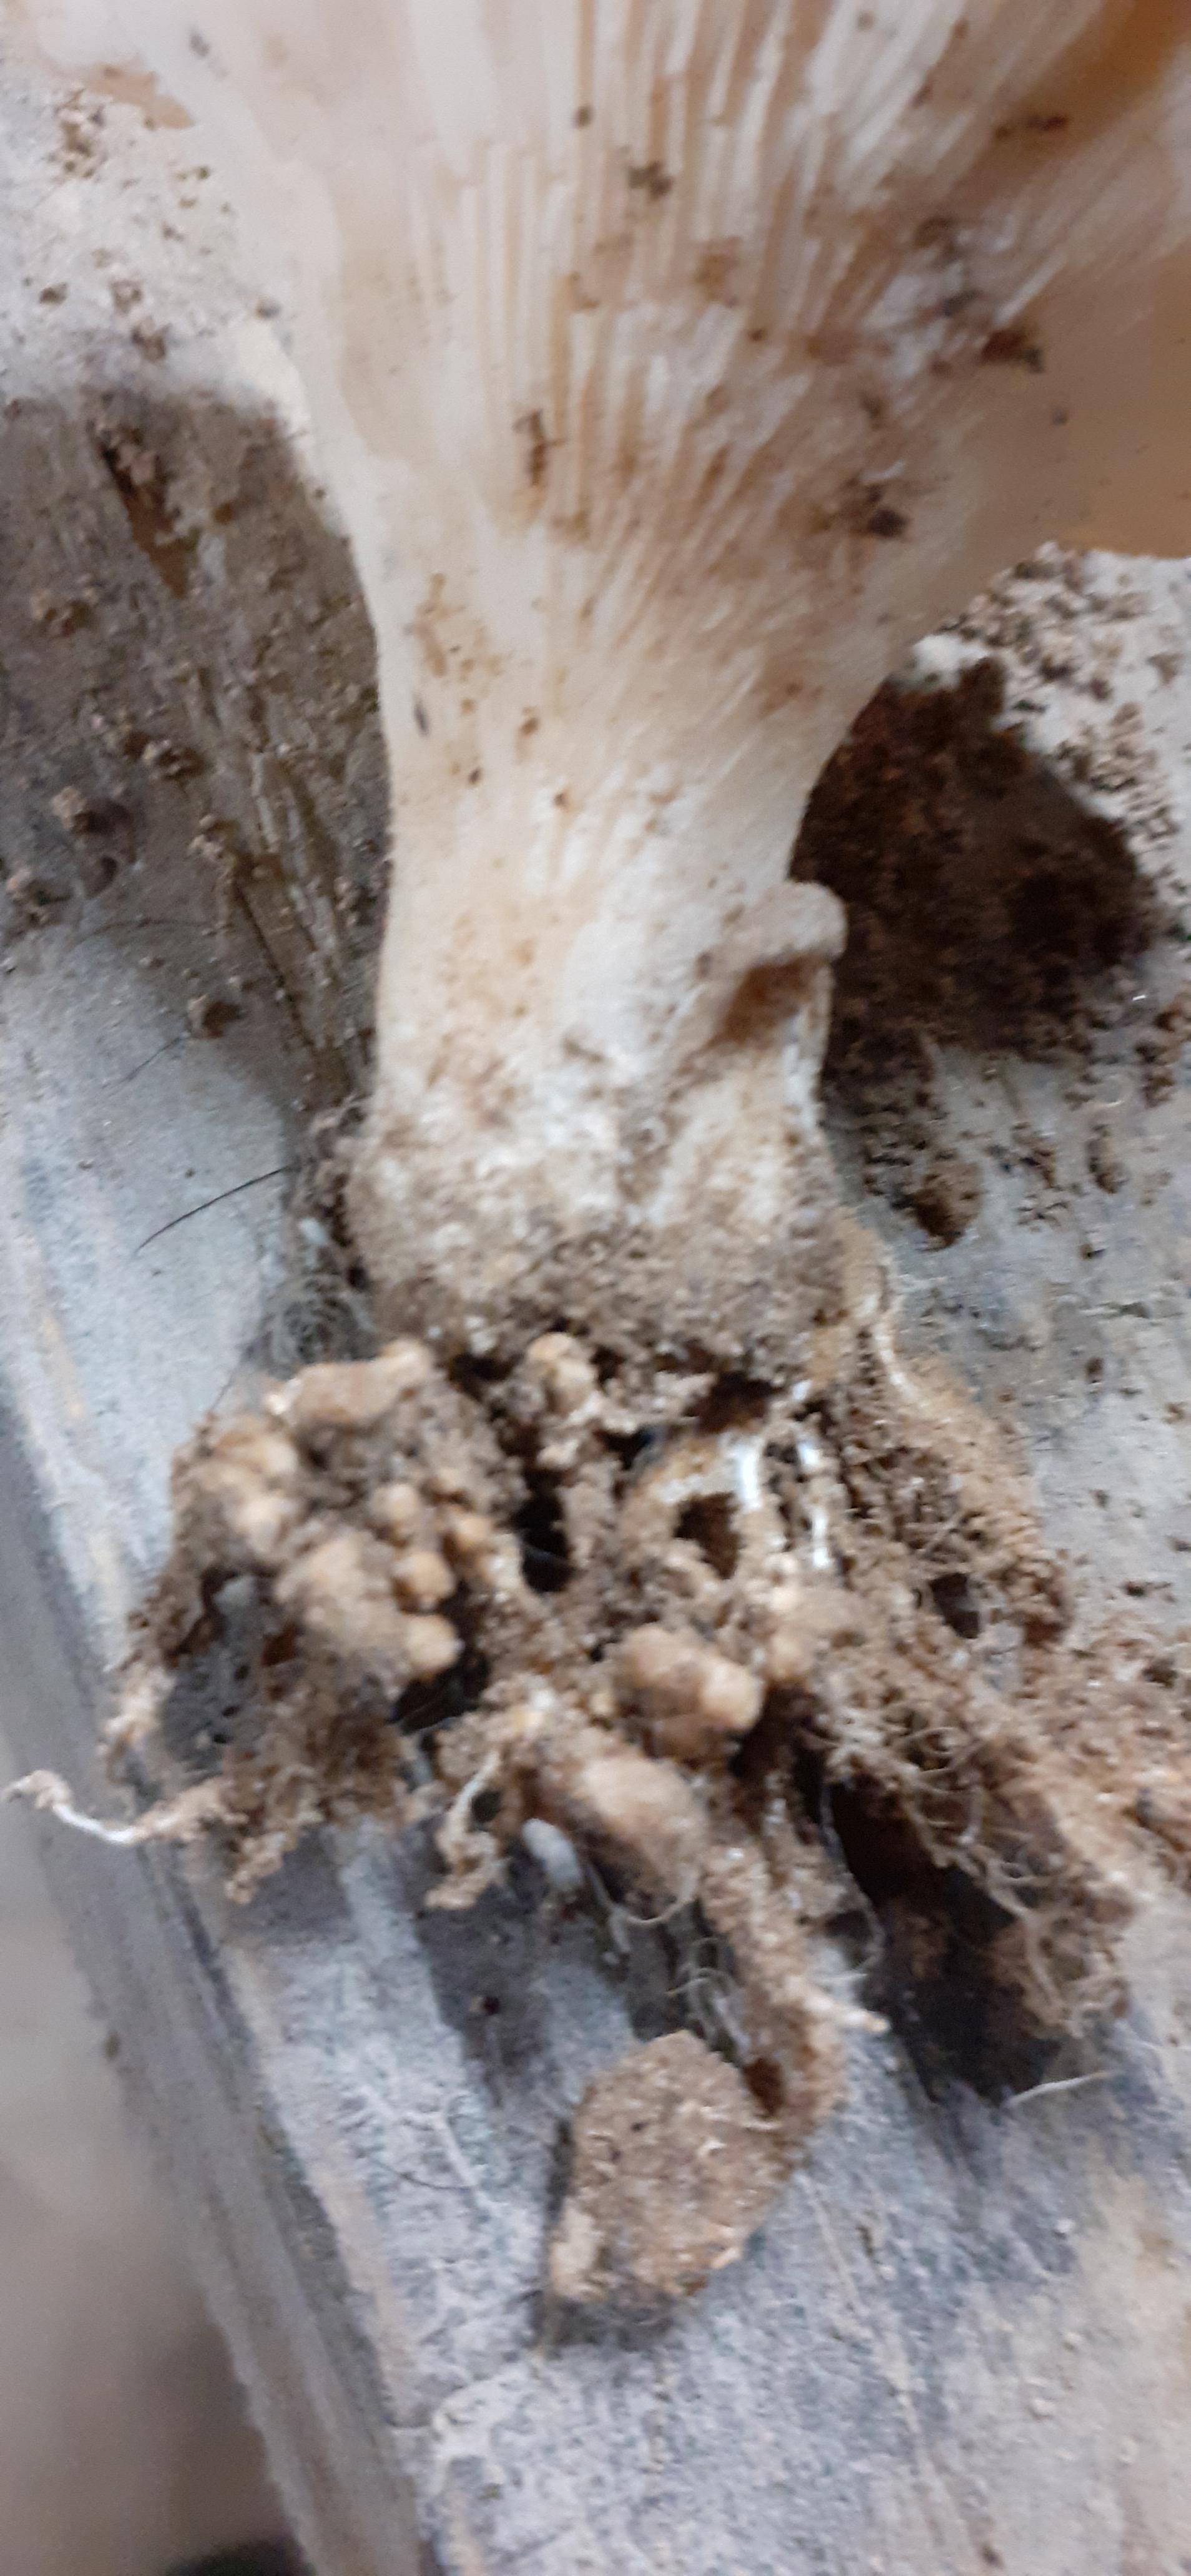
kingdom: Fungi
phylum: Basidiomycota
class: Agaricomycetes
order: Agaricales
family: Pleurotaceae
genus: Pleurotus
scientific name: Pleurotus
